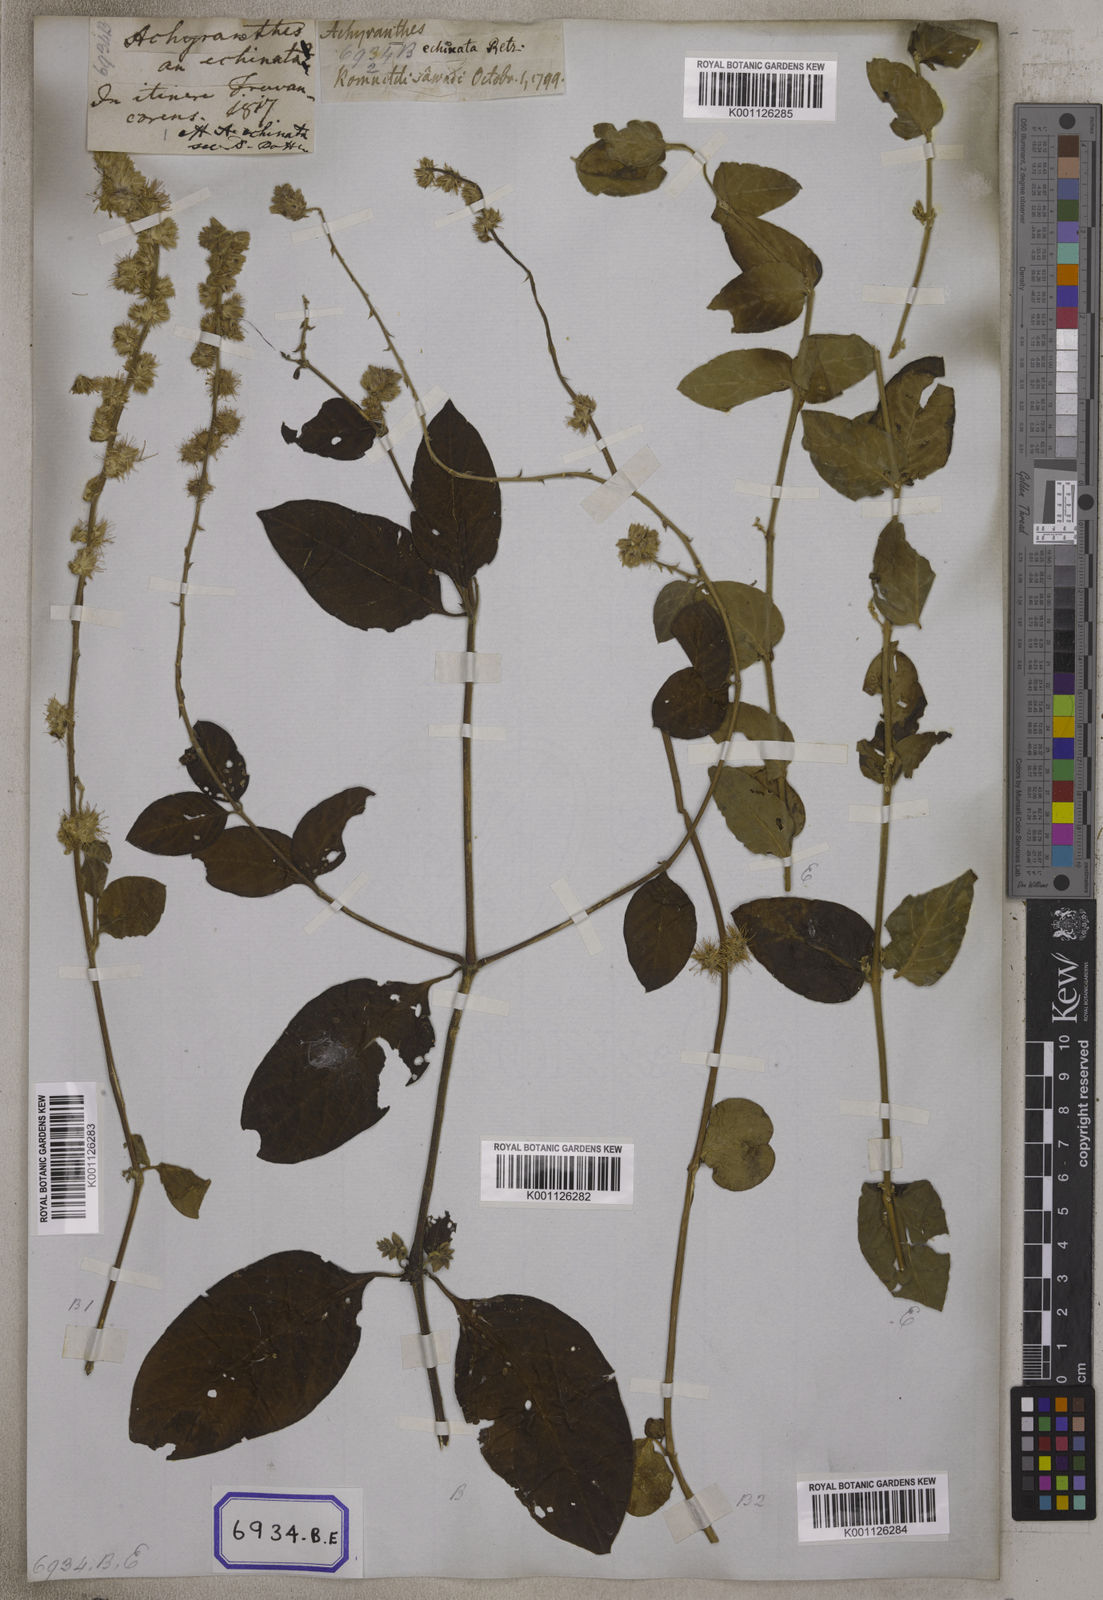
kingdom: Plantae
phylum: Tracheophyta
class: Magnoliopsida
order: Caryophyllales
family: Amaranthaceae
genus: Pupalia
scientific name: Pupalia lappacea
